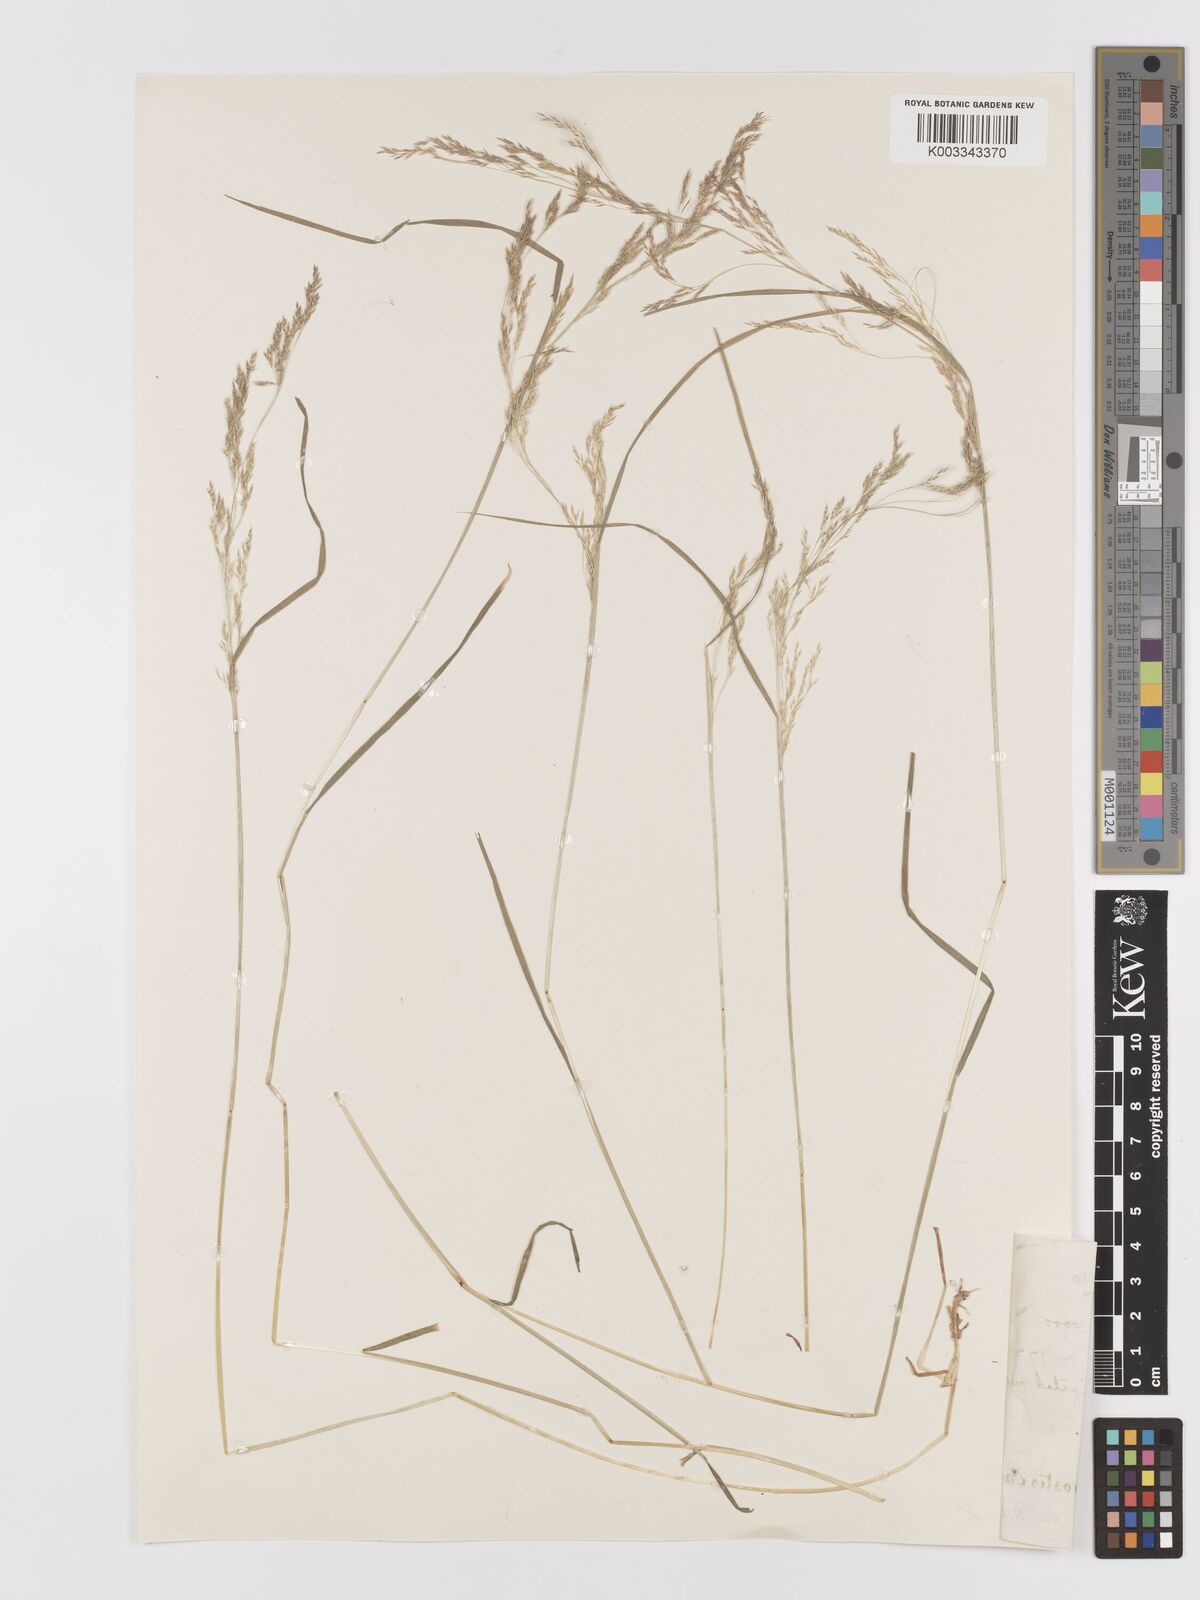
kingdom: Plantae
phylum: Tracheophyta
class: Liliopsida
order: Poales
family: Poaceae
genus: Agrostis
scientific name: Agrostis
